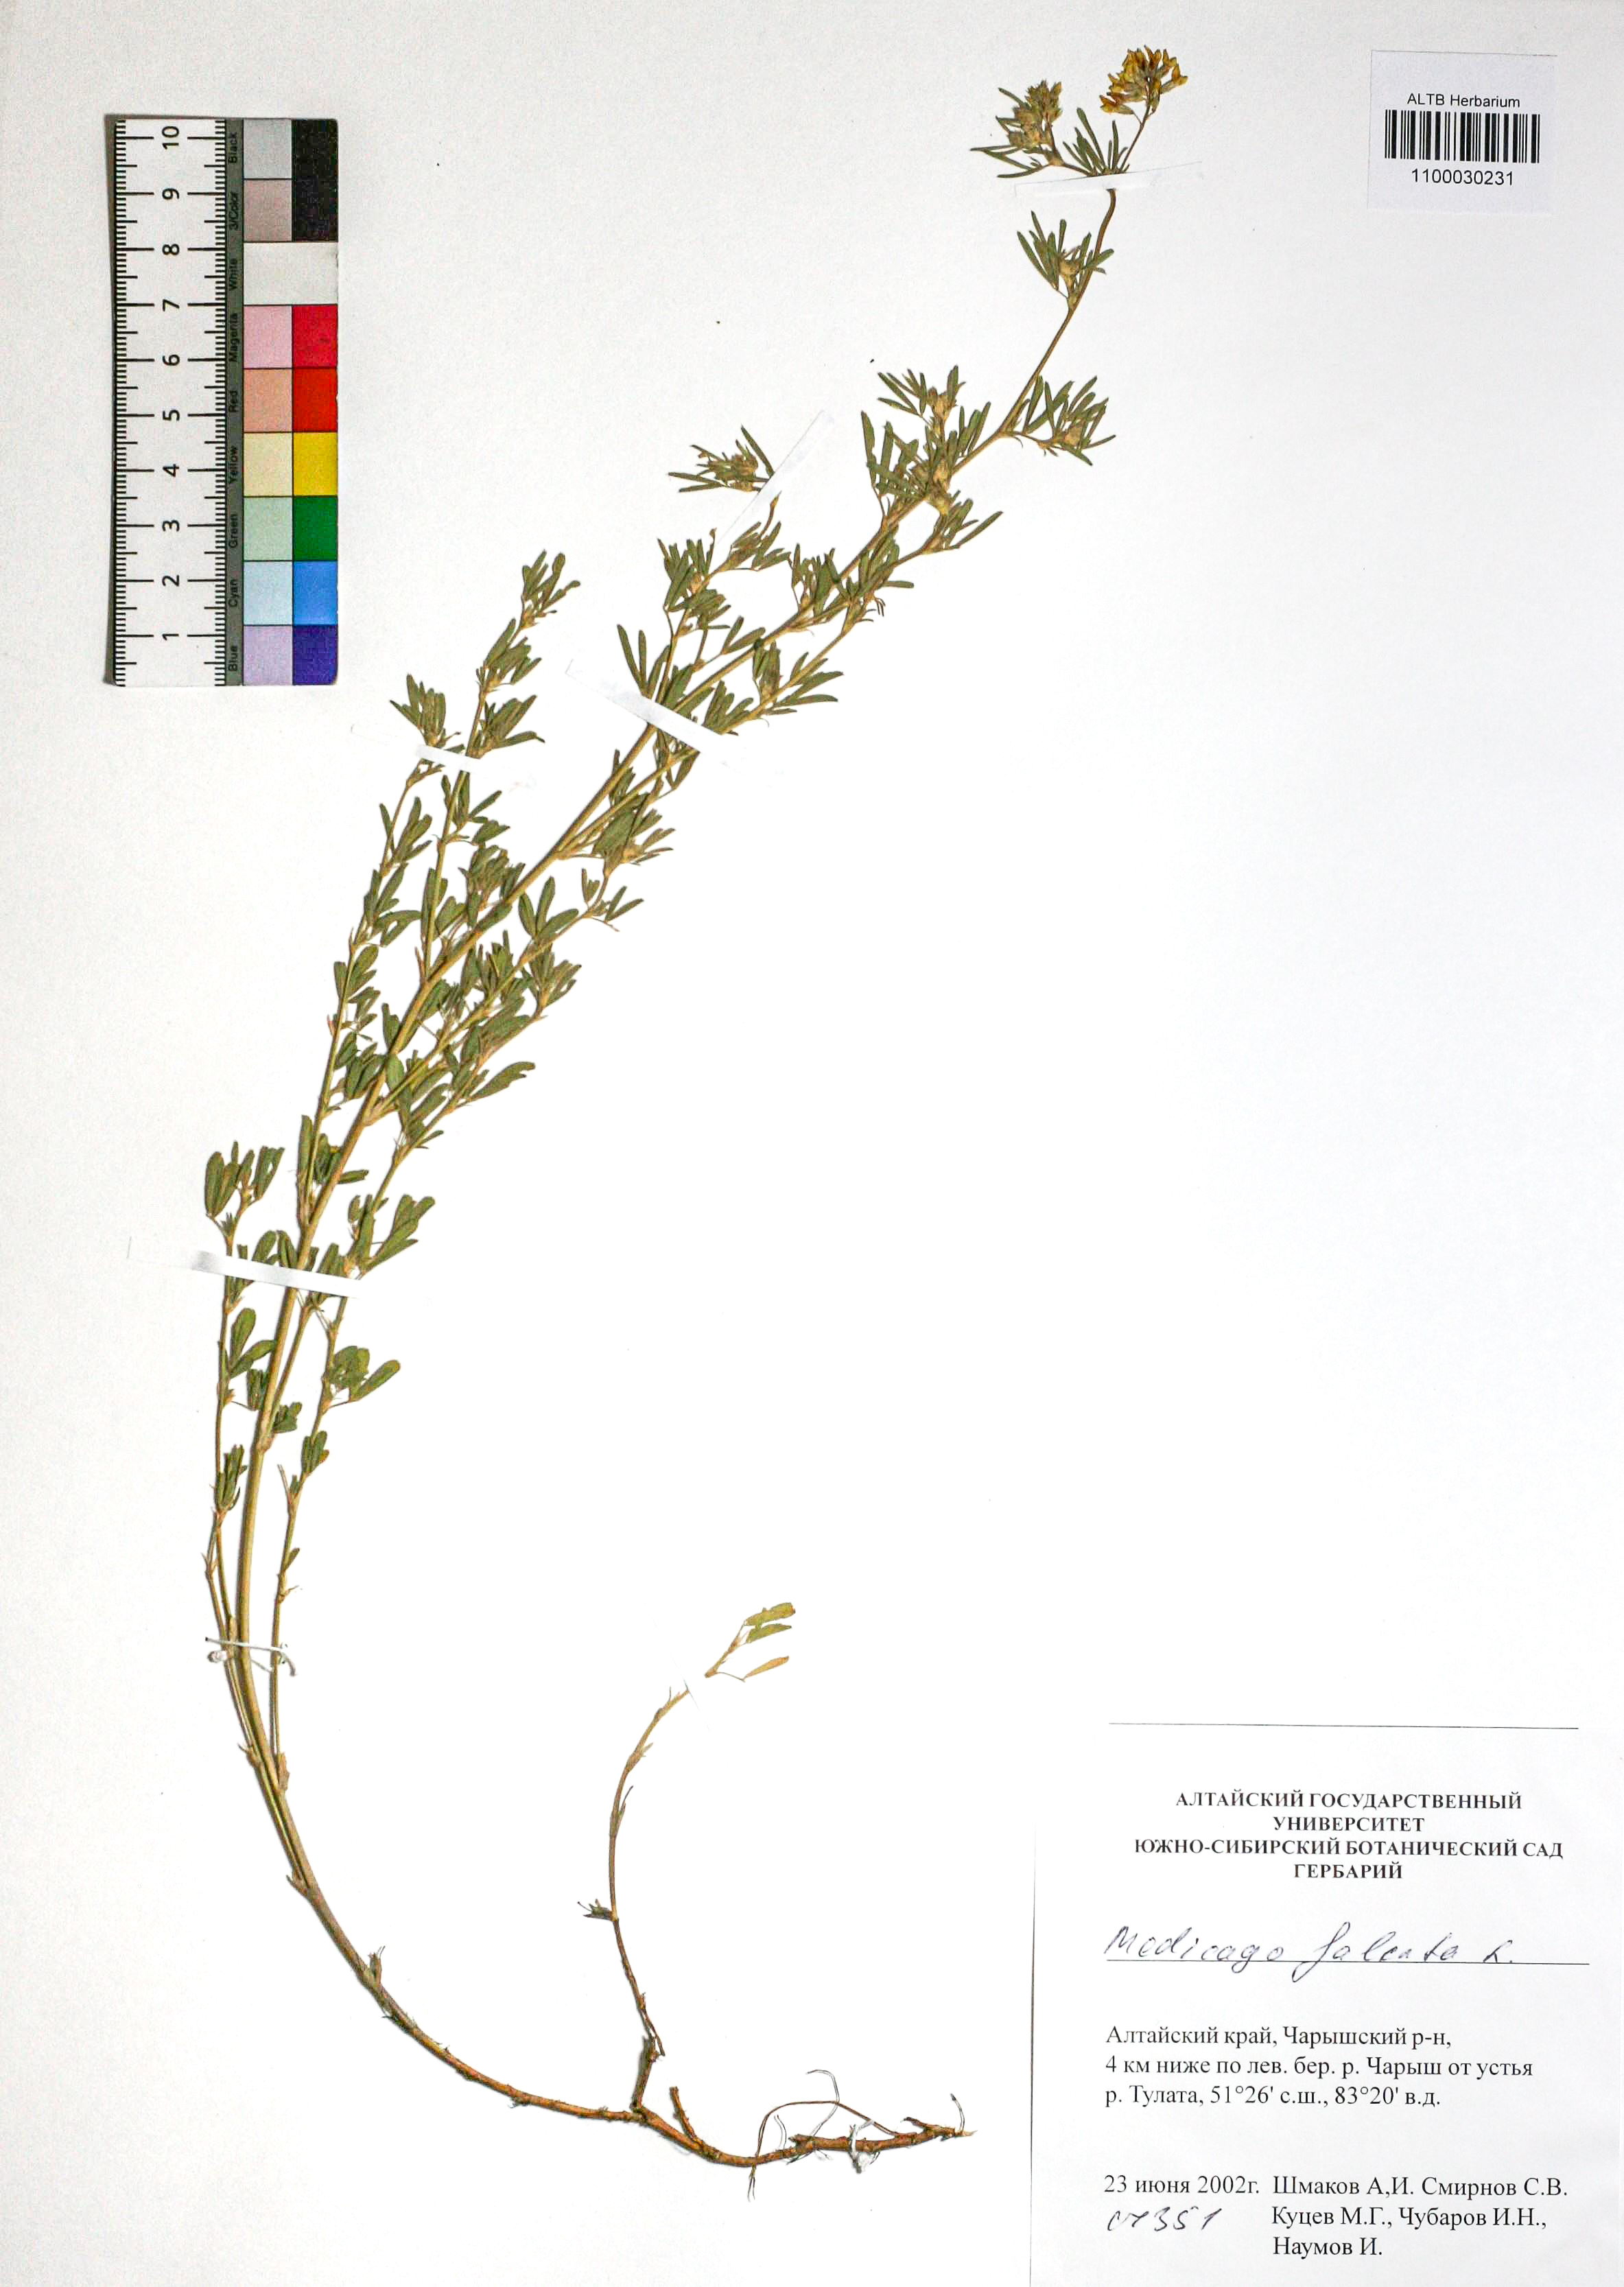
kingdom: Plantae
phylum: Tracheophyta
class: Magnoliopsida
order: Fabales
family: Fabaceae
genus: Medicago
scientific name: Medicago falcata
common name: Sickle medick
